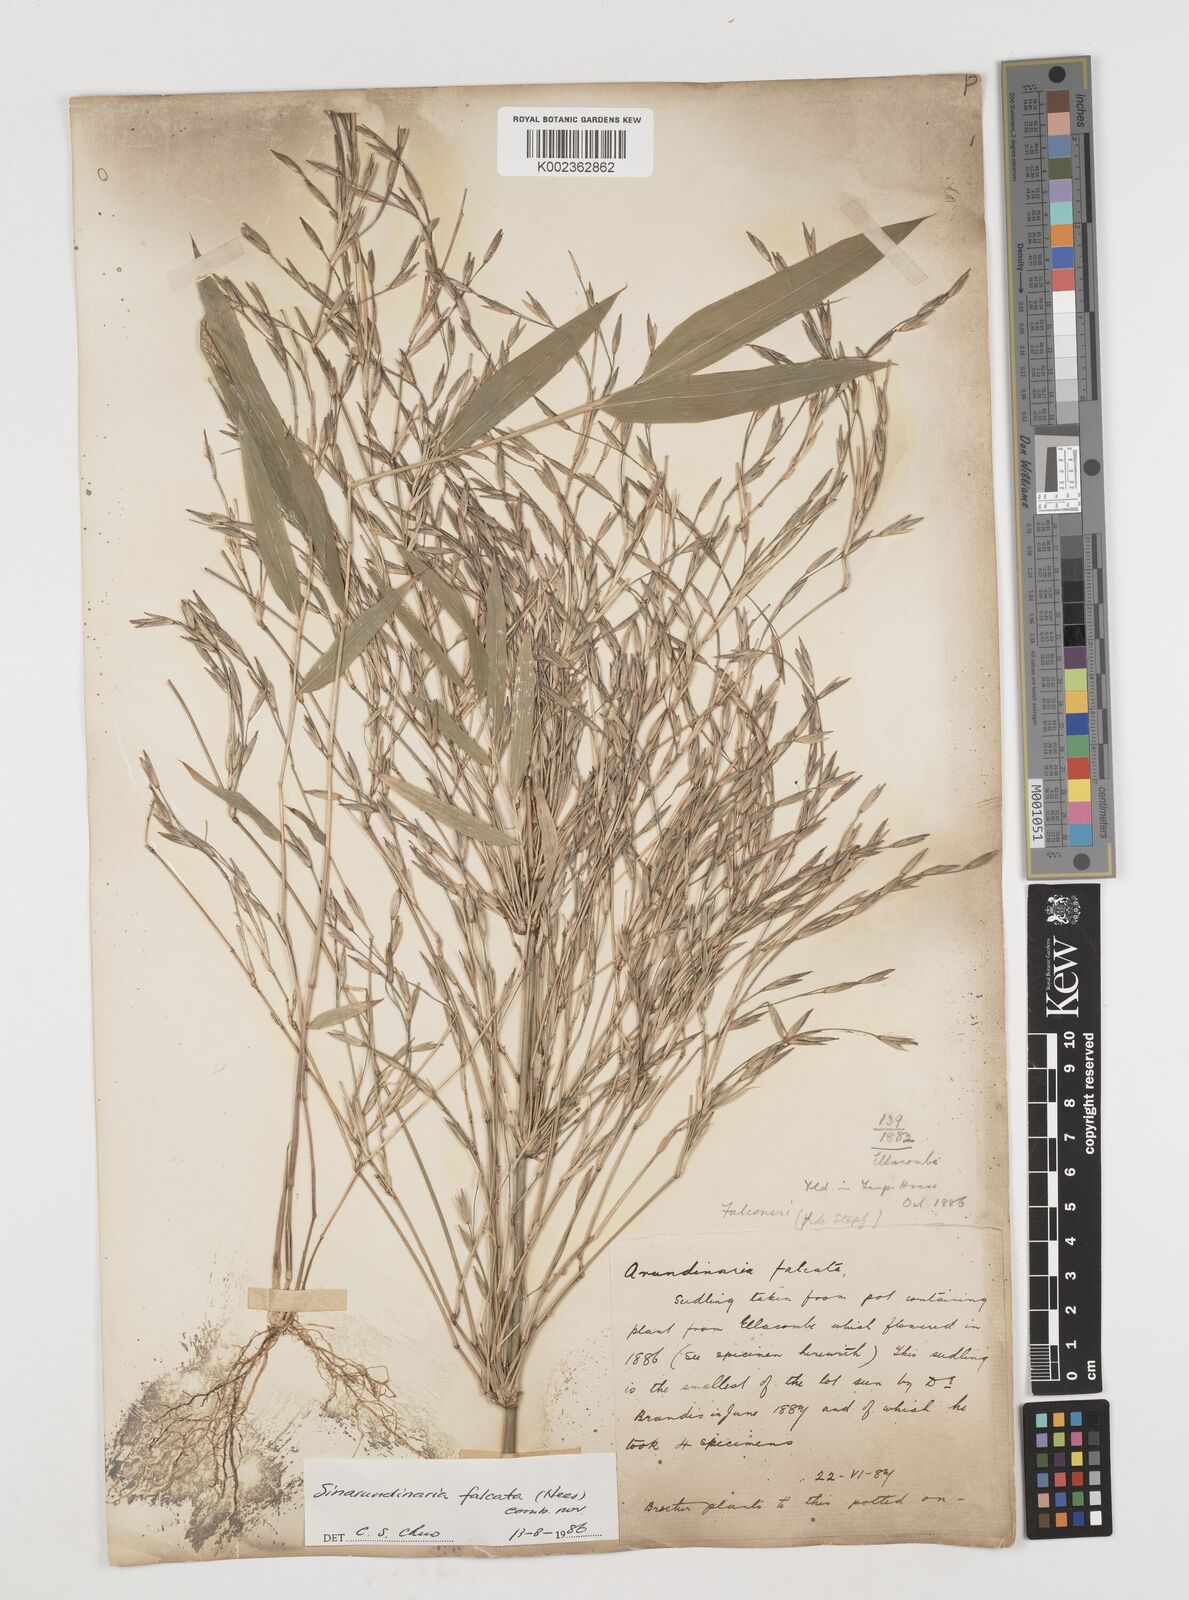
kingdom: Plantae
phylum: Tracheophyta
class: Liliopsida
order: Poales
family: Poaceae
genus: Drepanostachyum
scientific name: Drepanostachyum falcatum
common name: Himalayan bamboo
